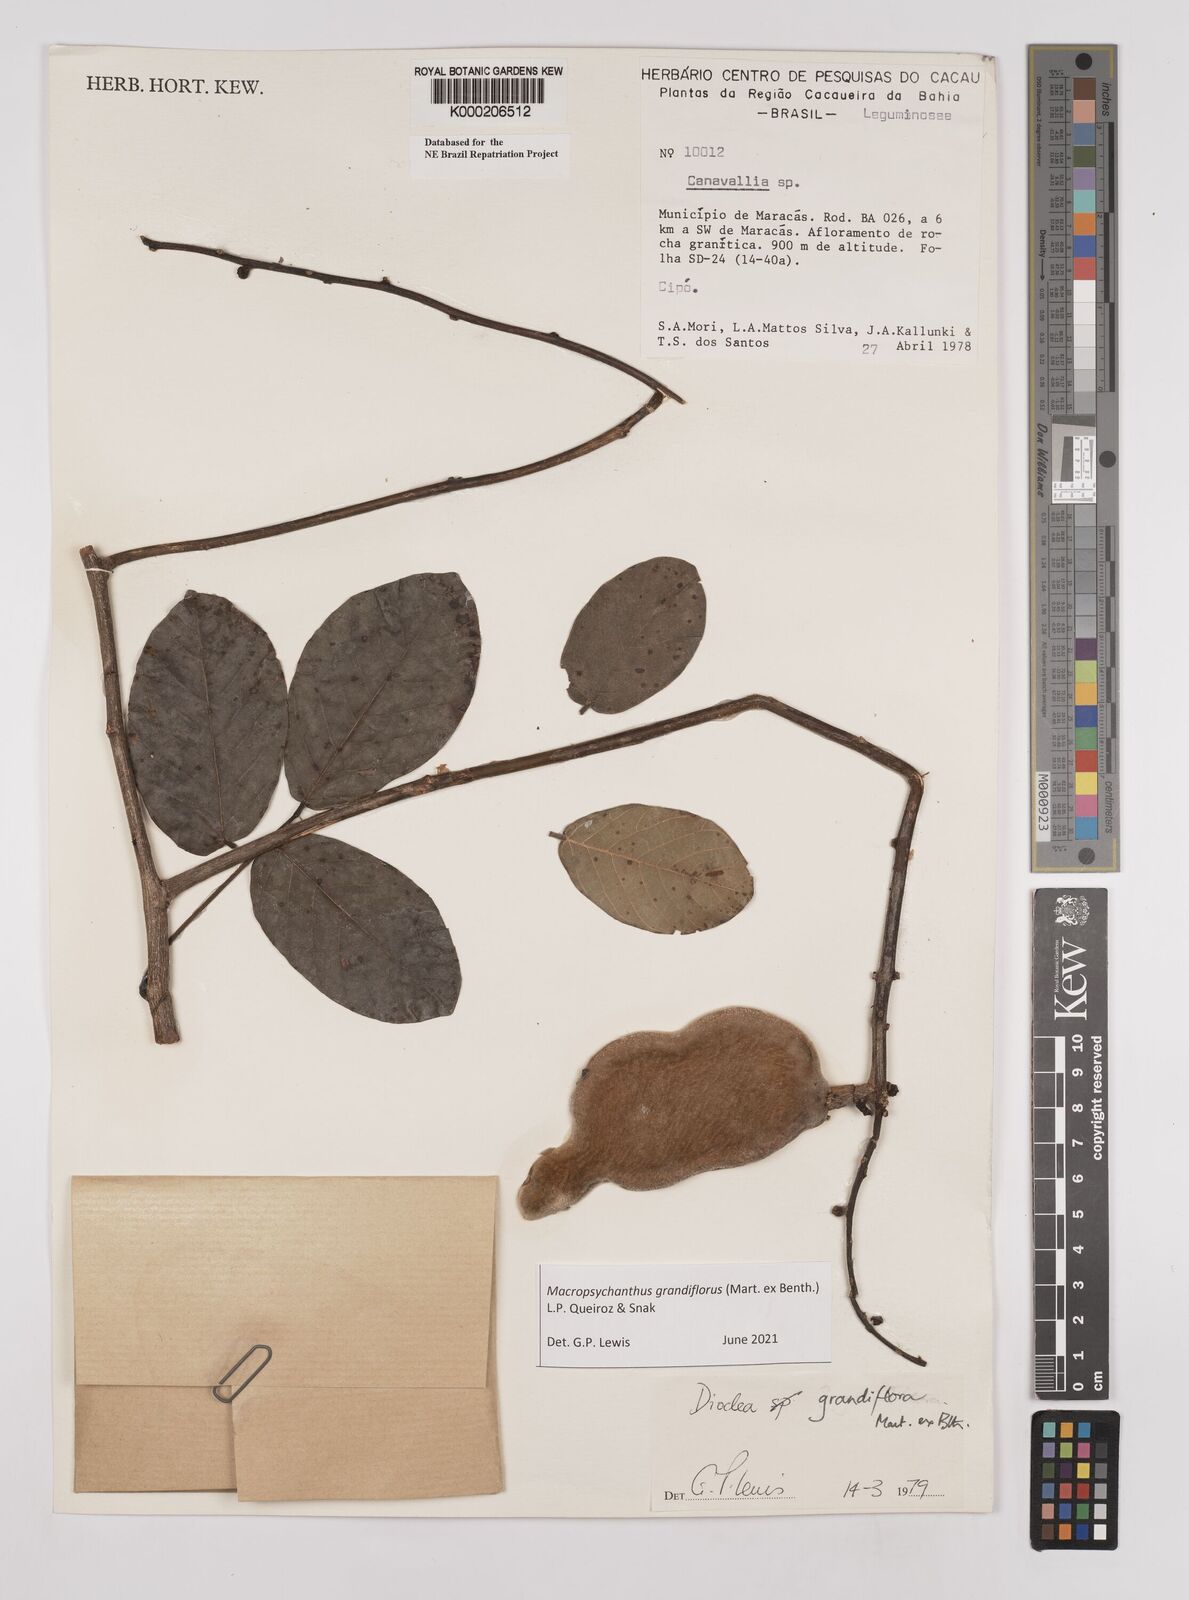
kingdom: Plantae
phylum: Tracheophyta
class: Magnoliopsida
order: Fabales
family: Fabaceae
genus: Macropsychanthus
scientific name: Macropsychanthus grandiflorus
